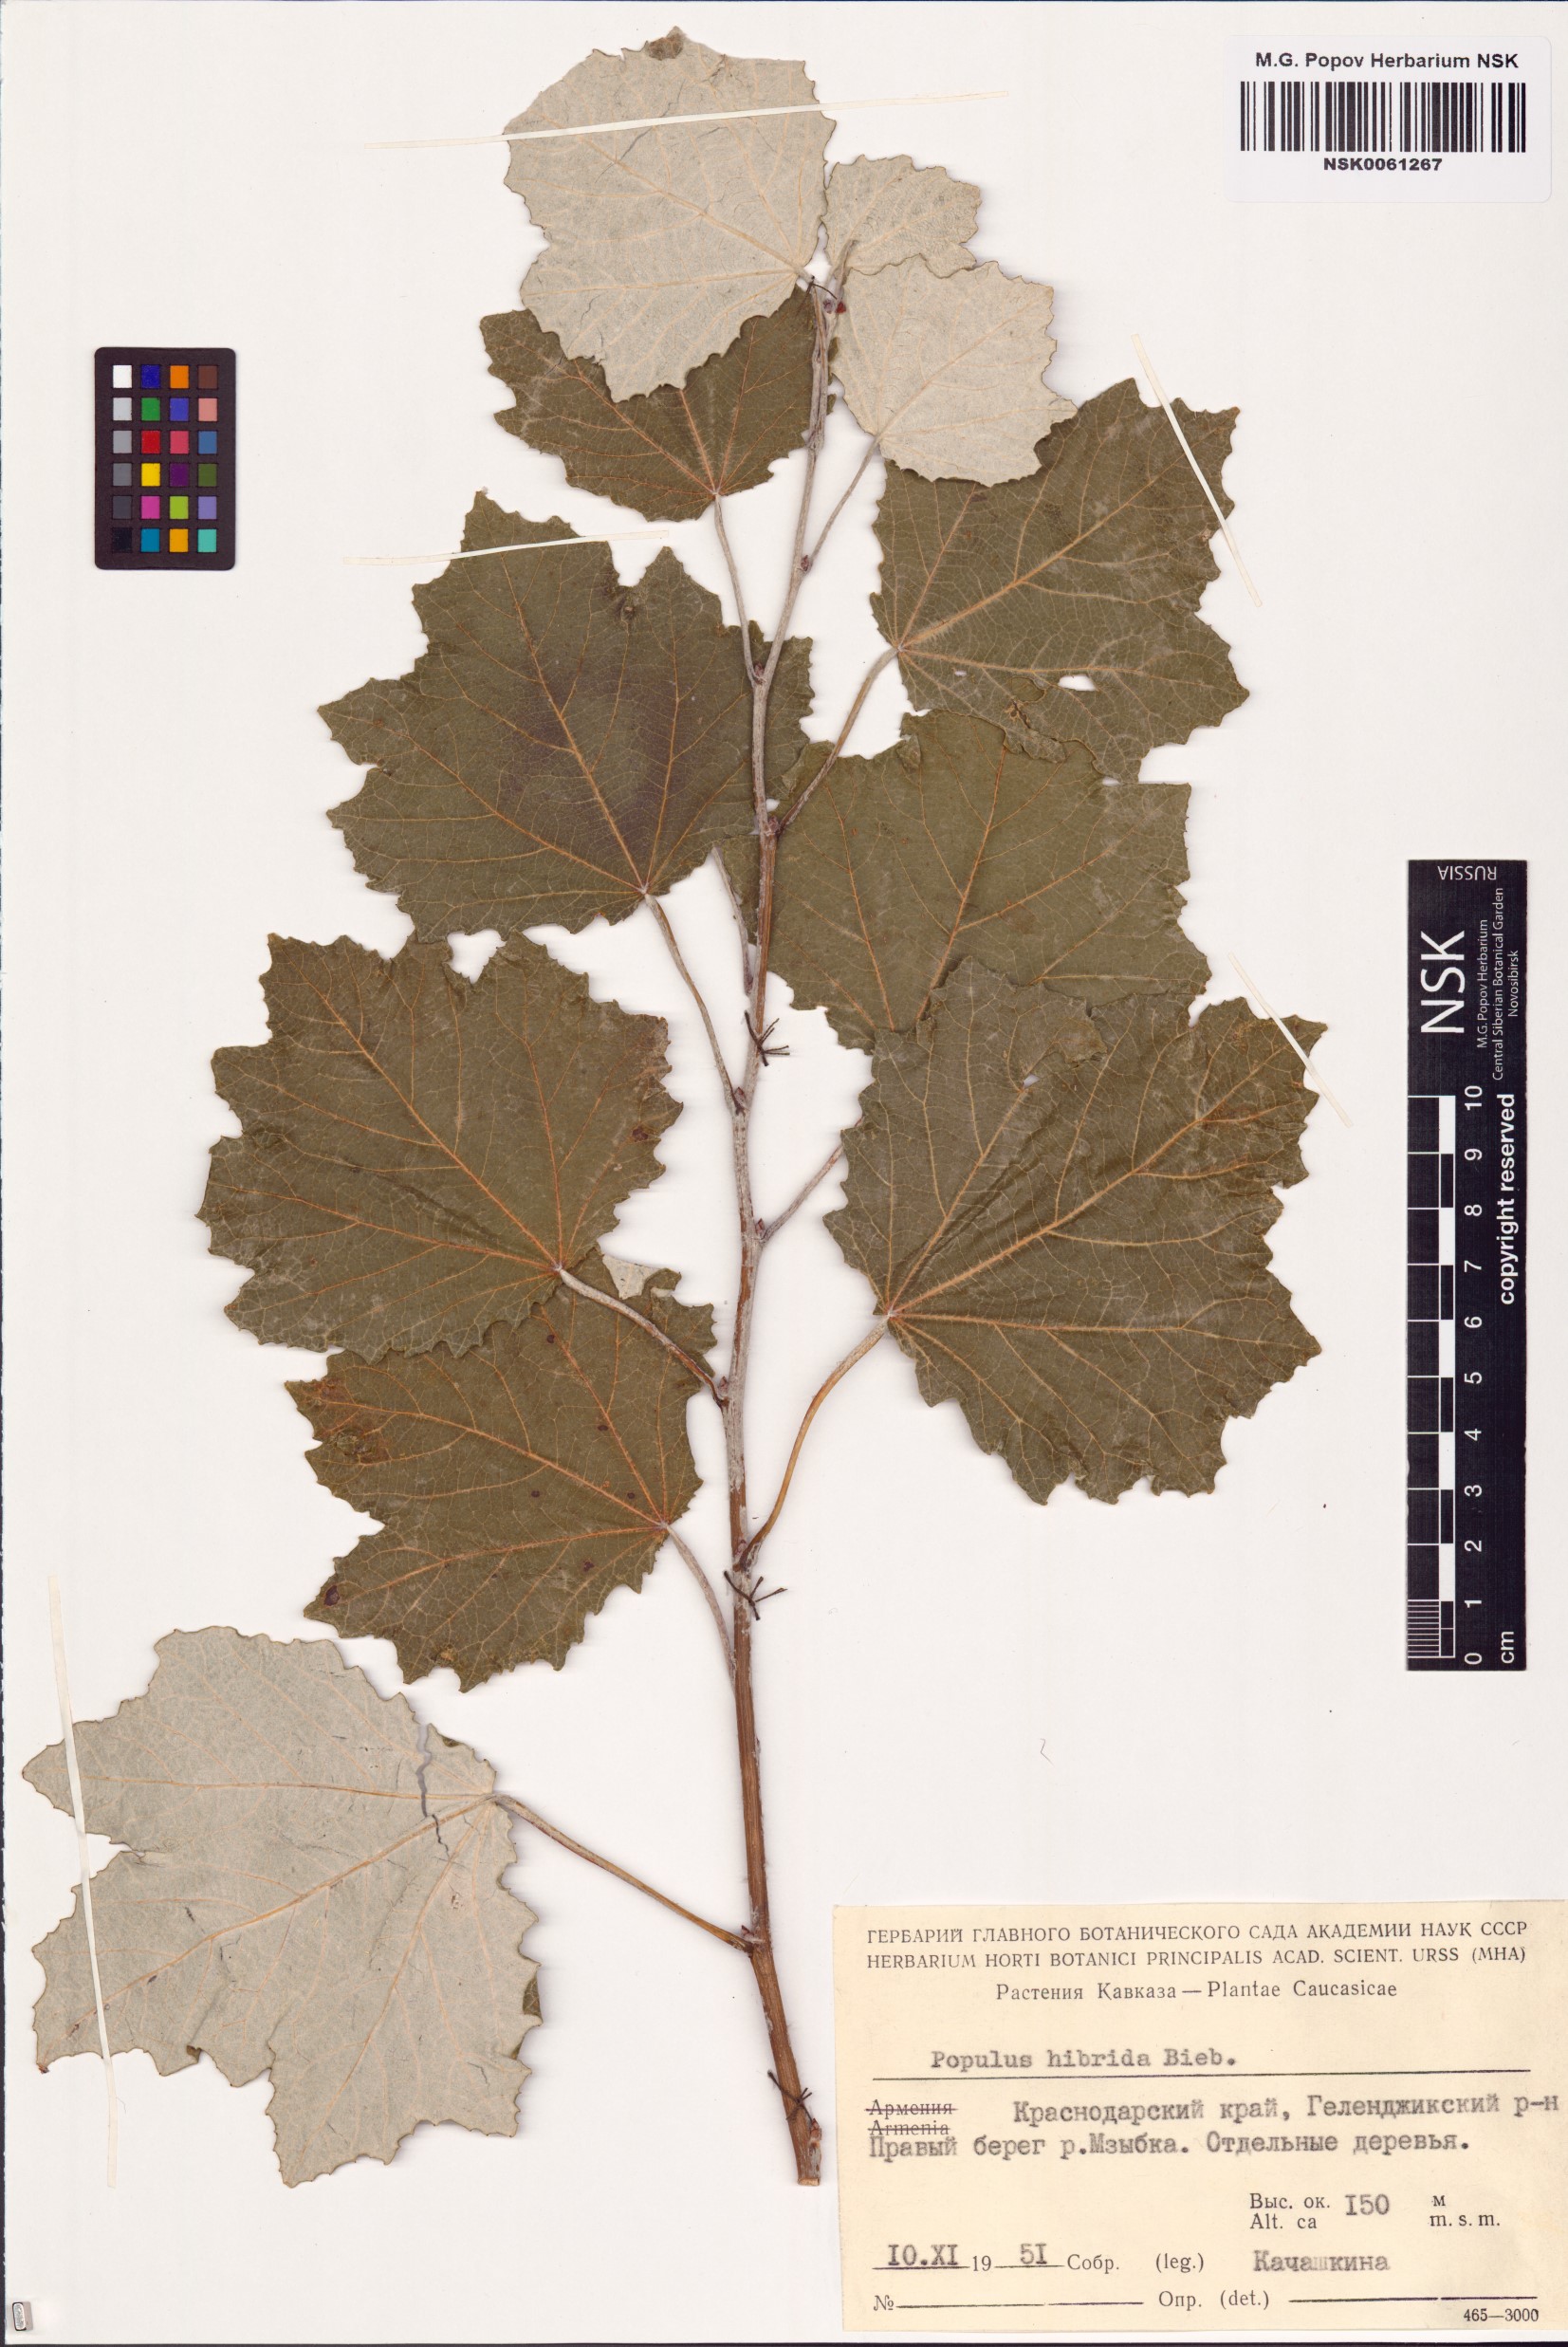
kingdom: Plantae
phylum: Tracheophyta
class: Magnoliopsida
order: Malpighiales
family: Salicaceae
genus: Populus
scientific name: Populus canescens
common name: Gray poplar
